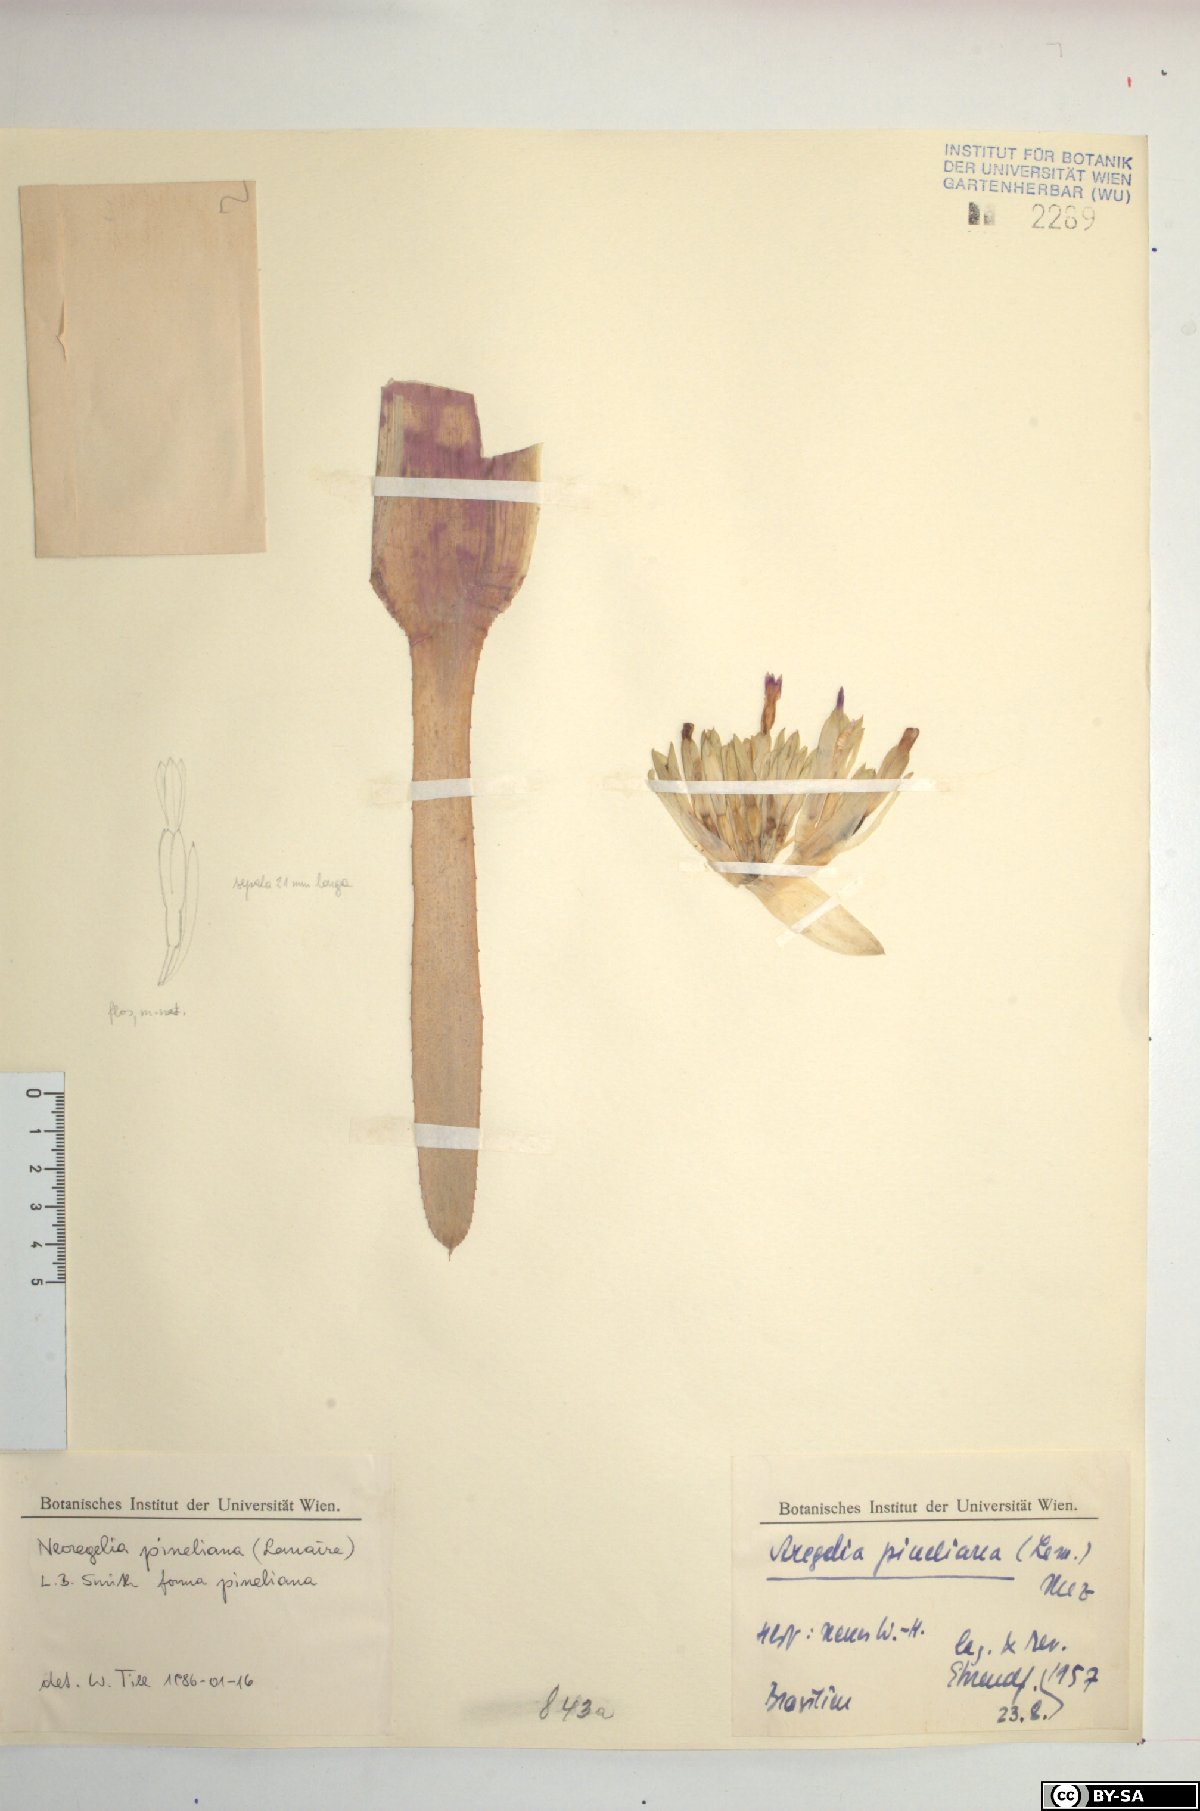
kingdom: Plantae
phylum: Tracheophyta
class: Liliopsida
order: Poales
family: Bromeliaceae
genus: Neoregelia
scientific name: Neoregelia pineliana
